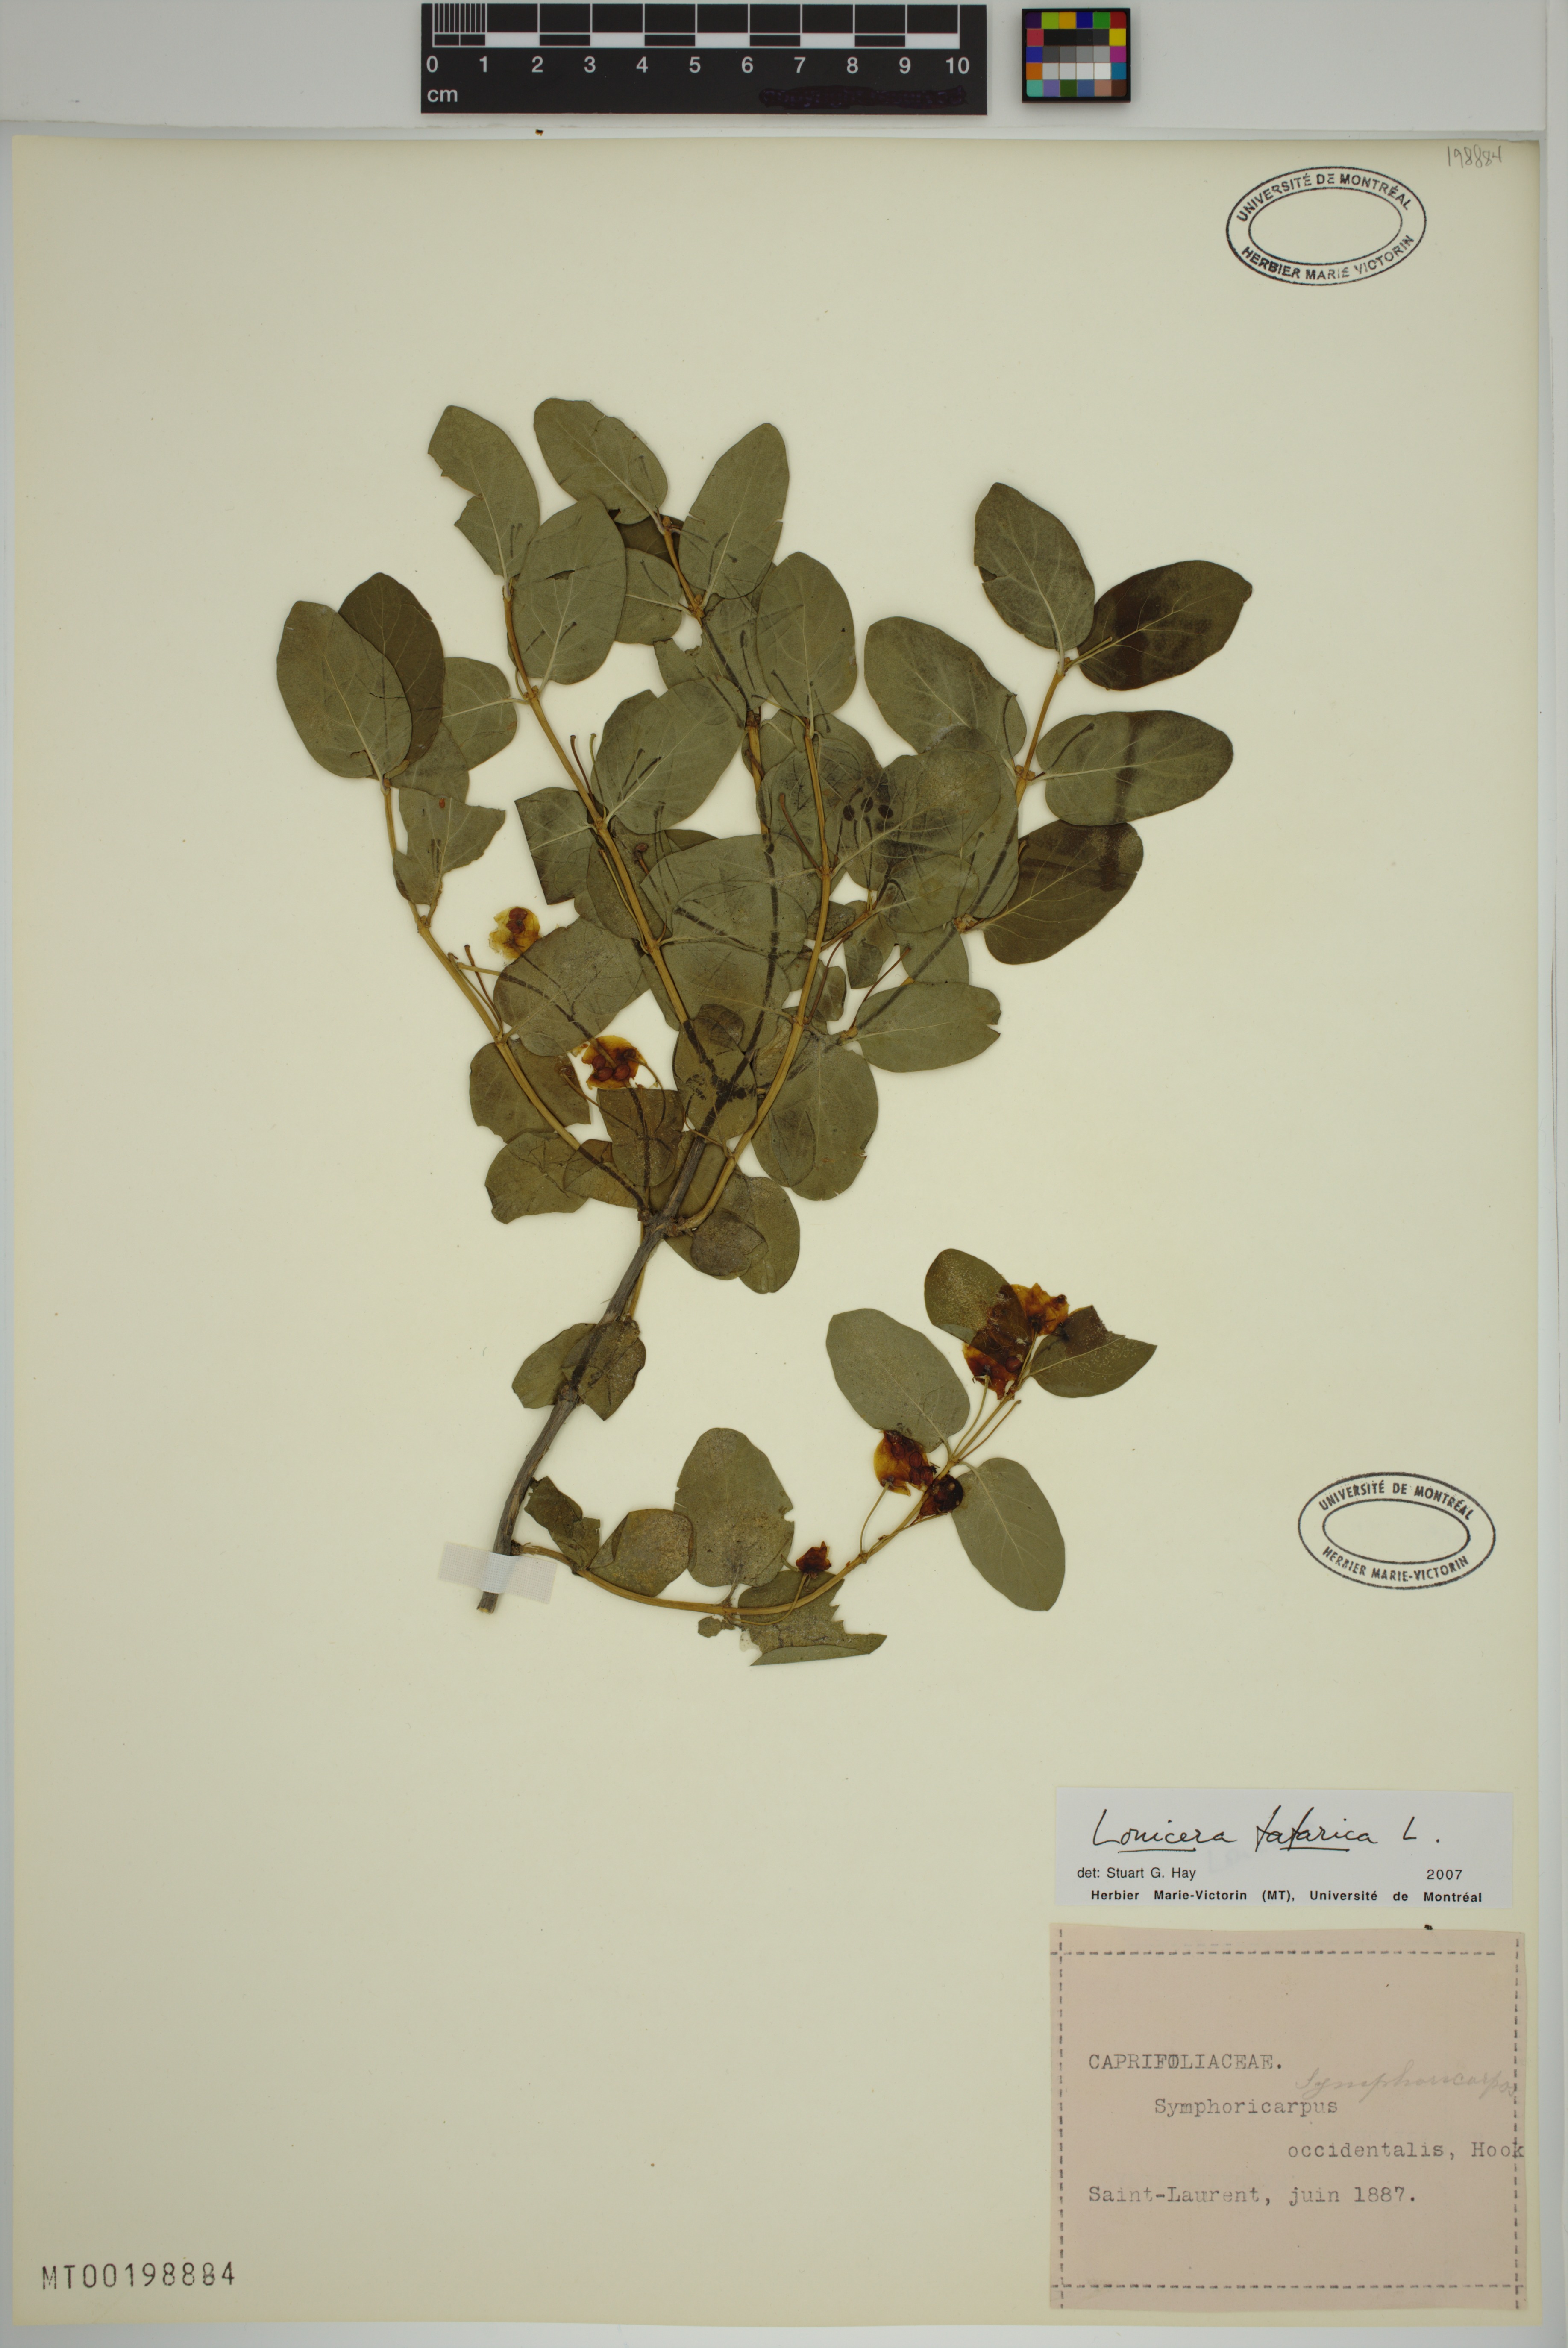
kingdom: Plantae
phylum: Tracheophyta
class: Magnoliopsida
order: Dipsacales
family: Caprifoliaceae
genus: Lonicera
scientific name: Lonicera tatarica
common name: Tatarian honeysuckle
